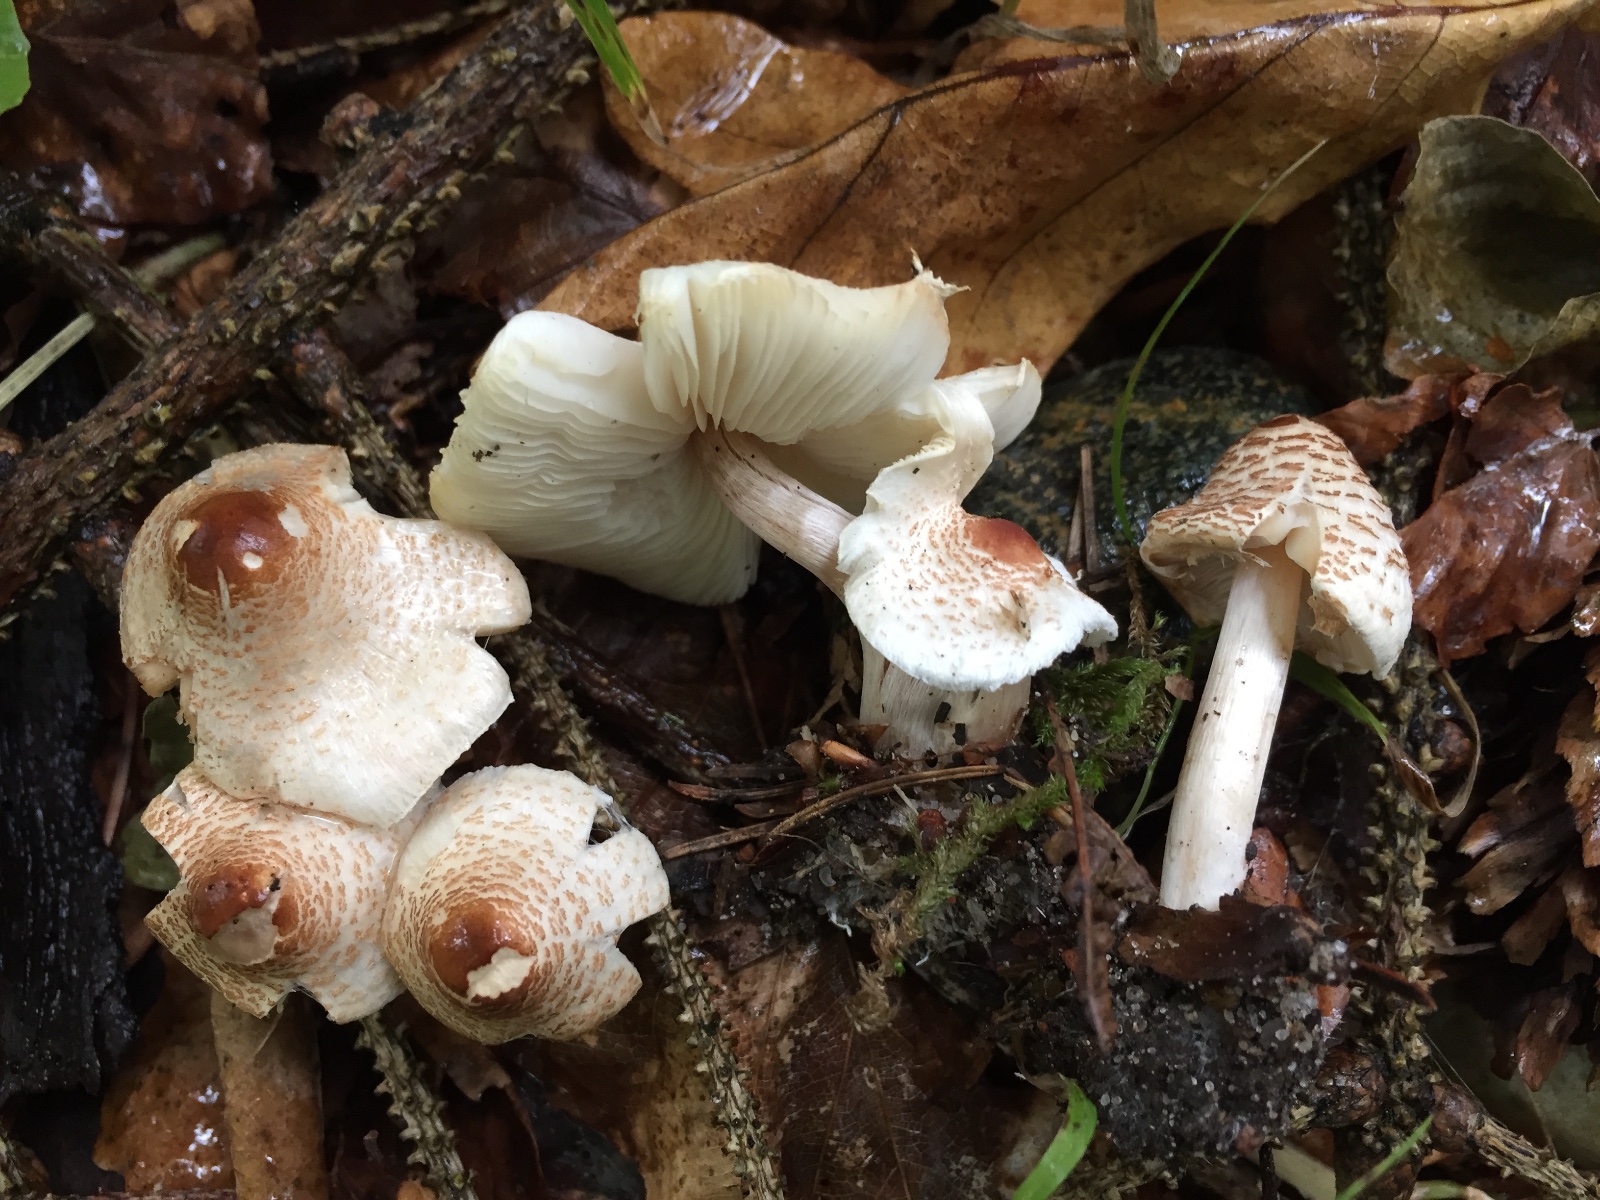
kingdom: Fungi
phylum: Basidiomycota
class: Agaricomycetes
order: Agaricales
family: Agaricaceae
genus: Lepiota
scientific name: Lepiota cristata
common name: stinkende parasolhat
